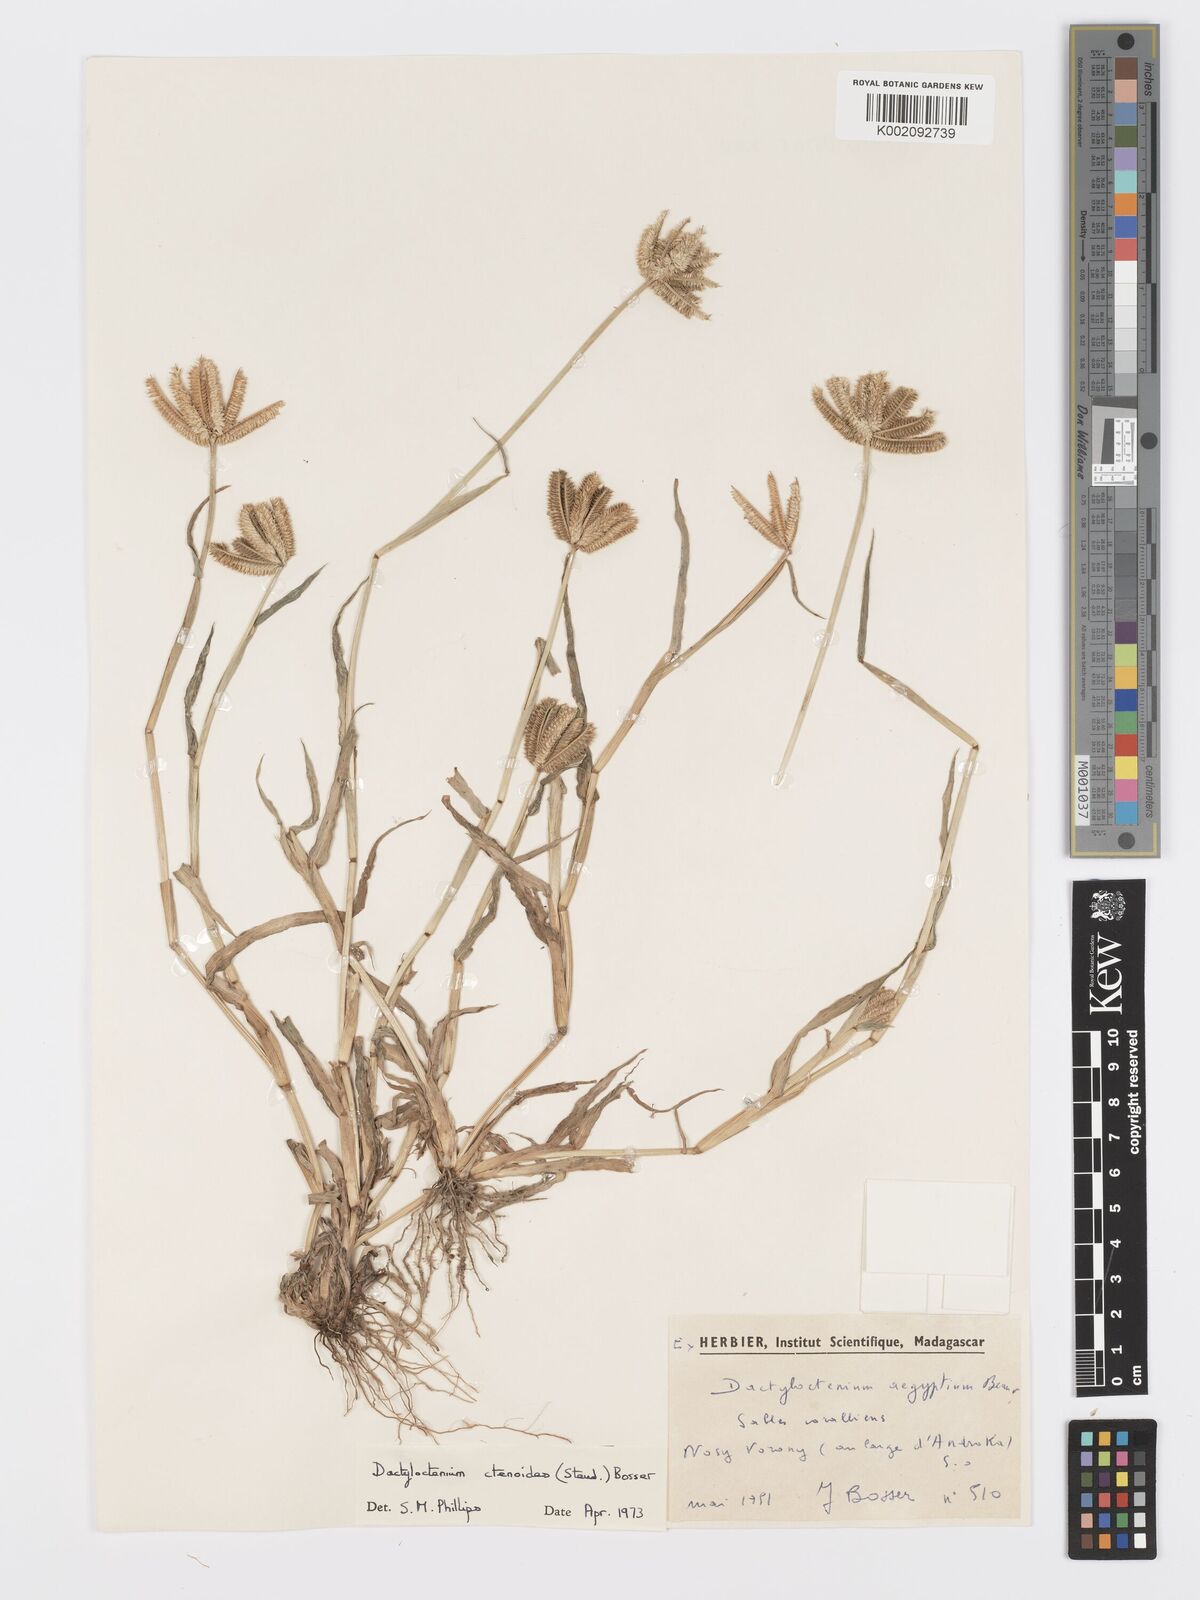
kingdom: Plantae
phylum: Tracheophyta
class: Liliopsida
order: Poales
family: Poaceae
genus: Dactyloctenium
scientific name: Dactyloctenium ctenoides
